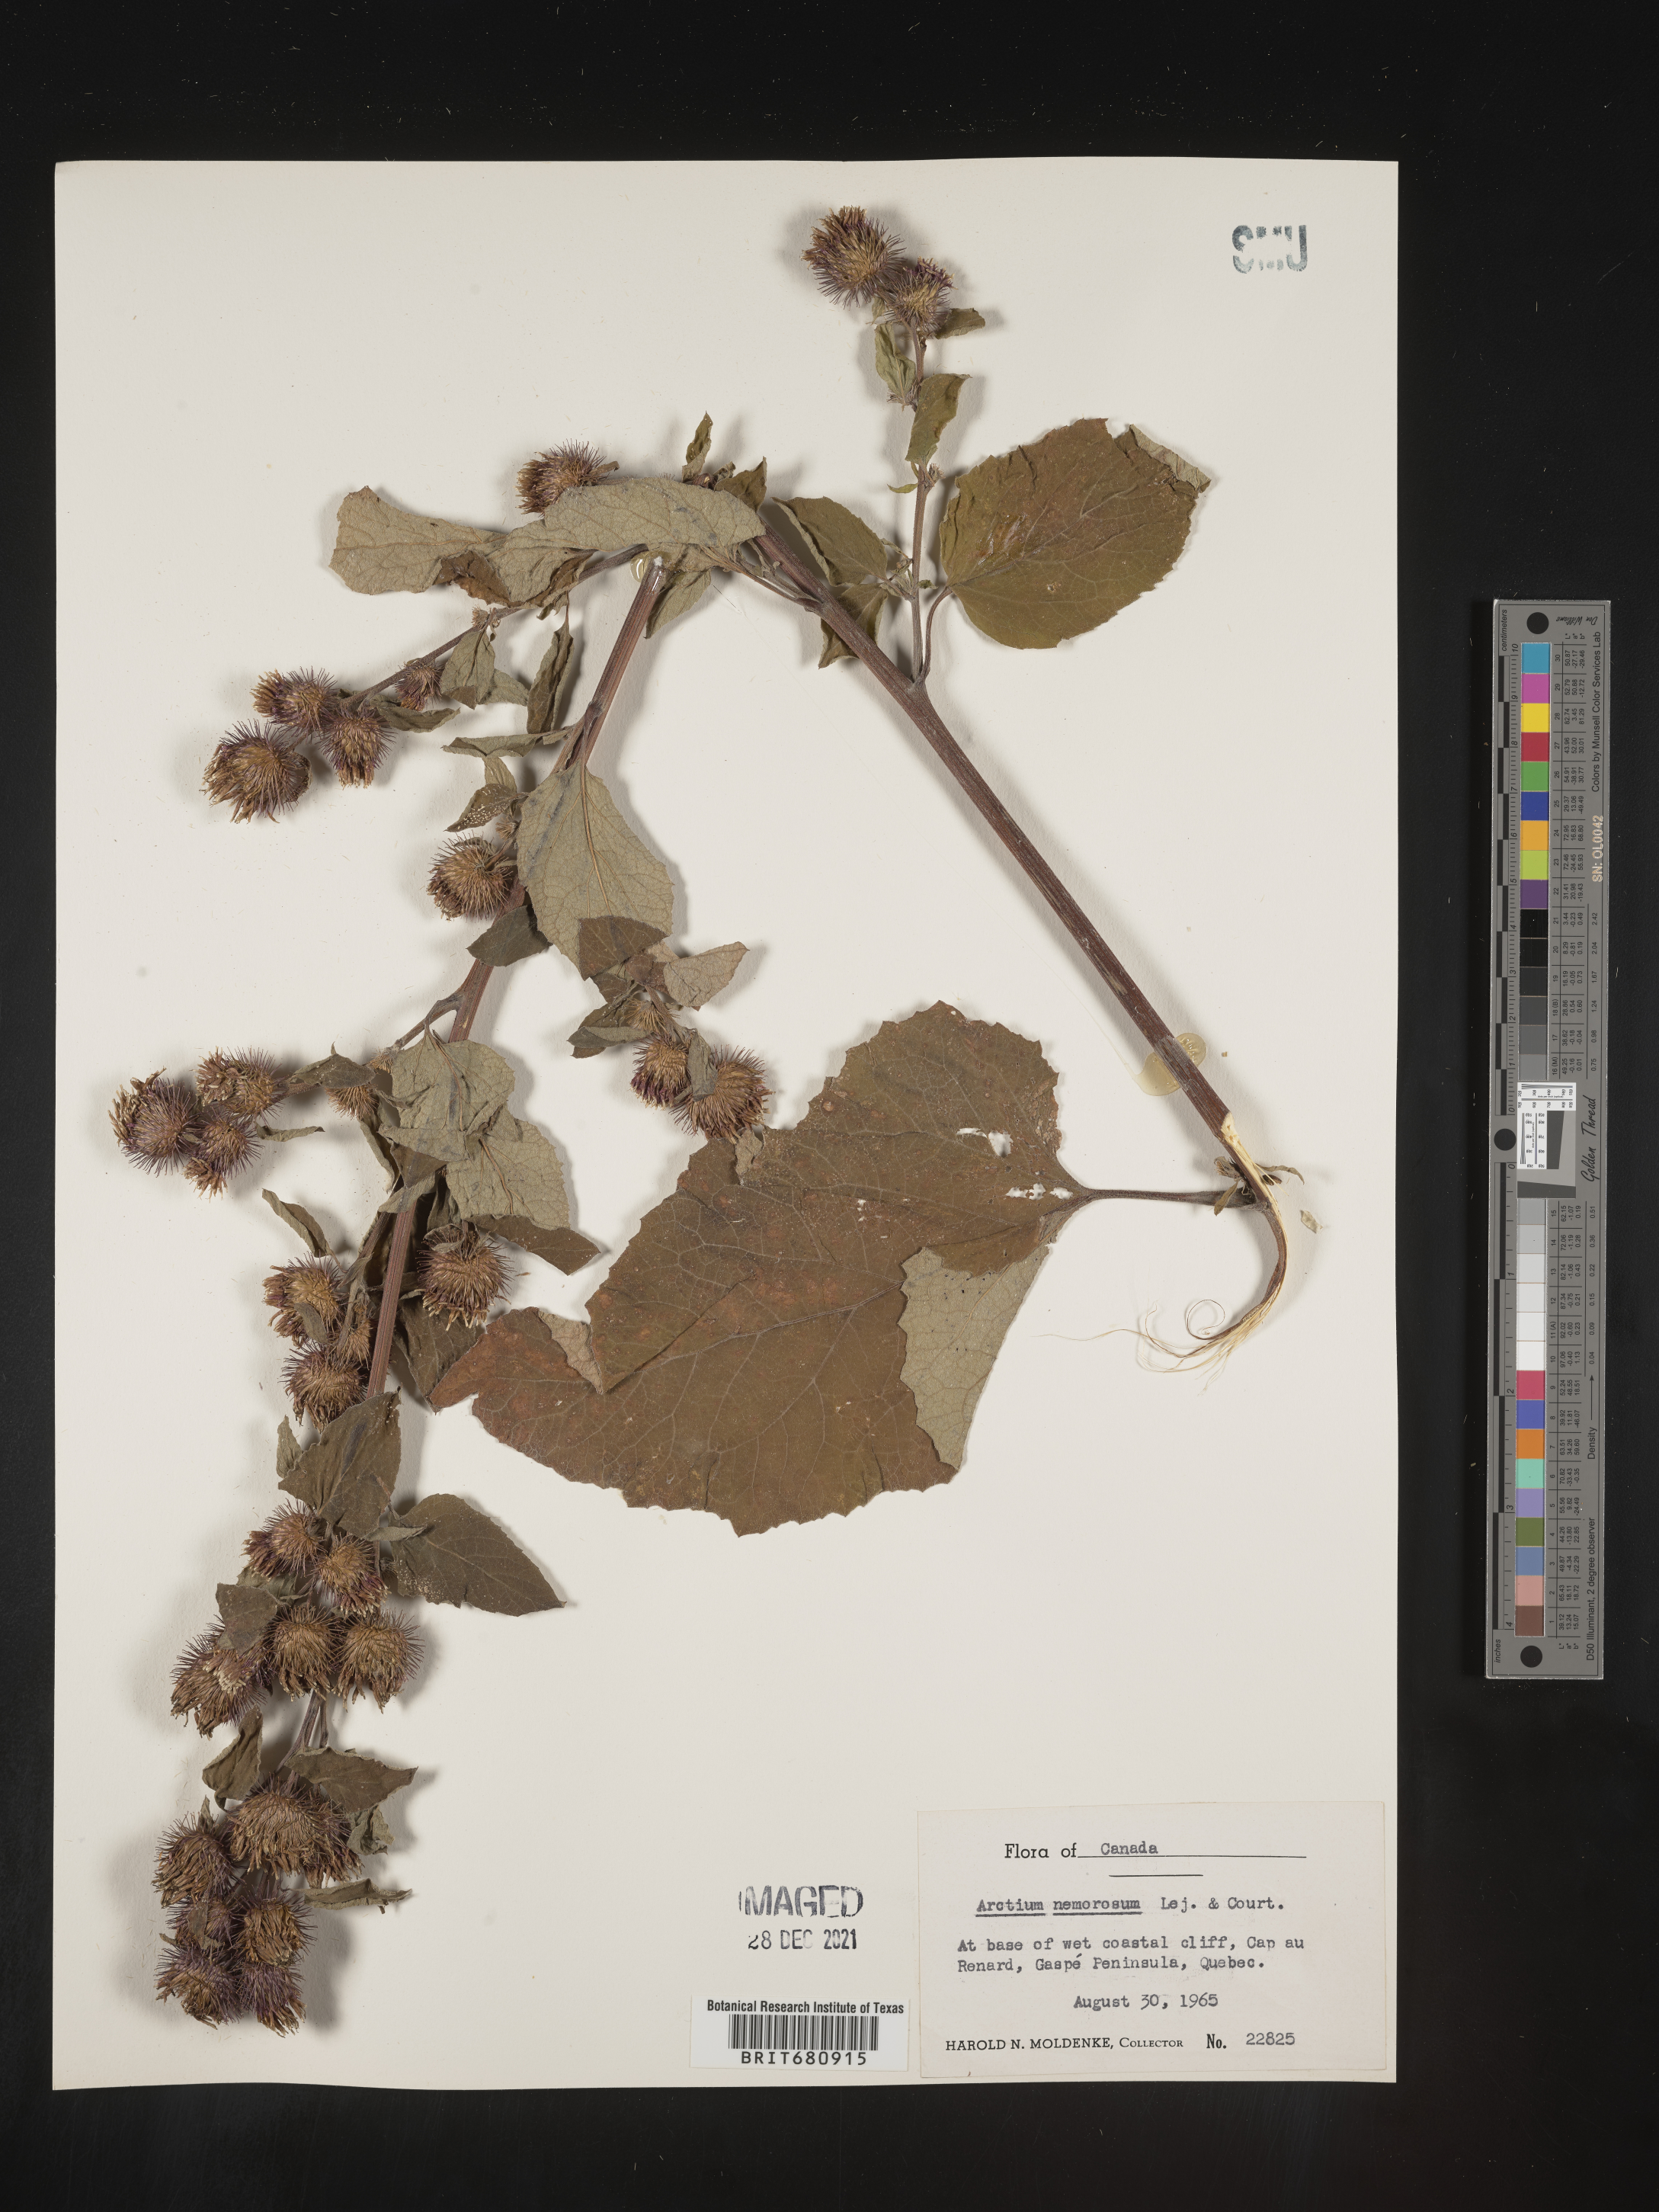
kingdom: Plantae
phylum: Tracheophyta
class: Magnoliopsida
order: Asterales
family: Asteraceae
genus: Arctium
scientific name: Arctium
